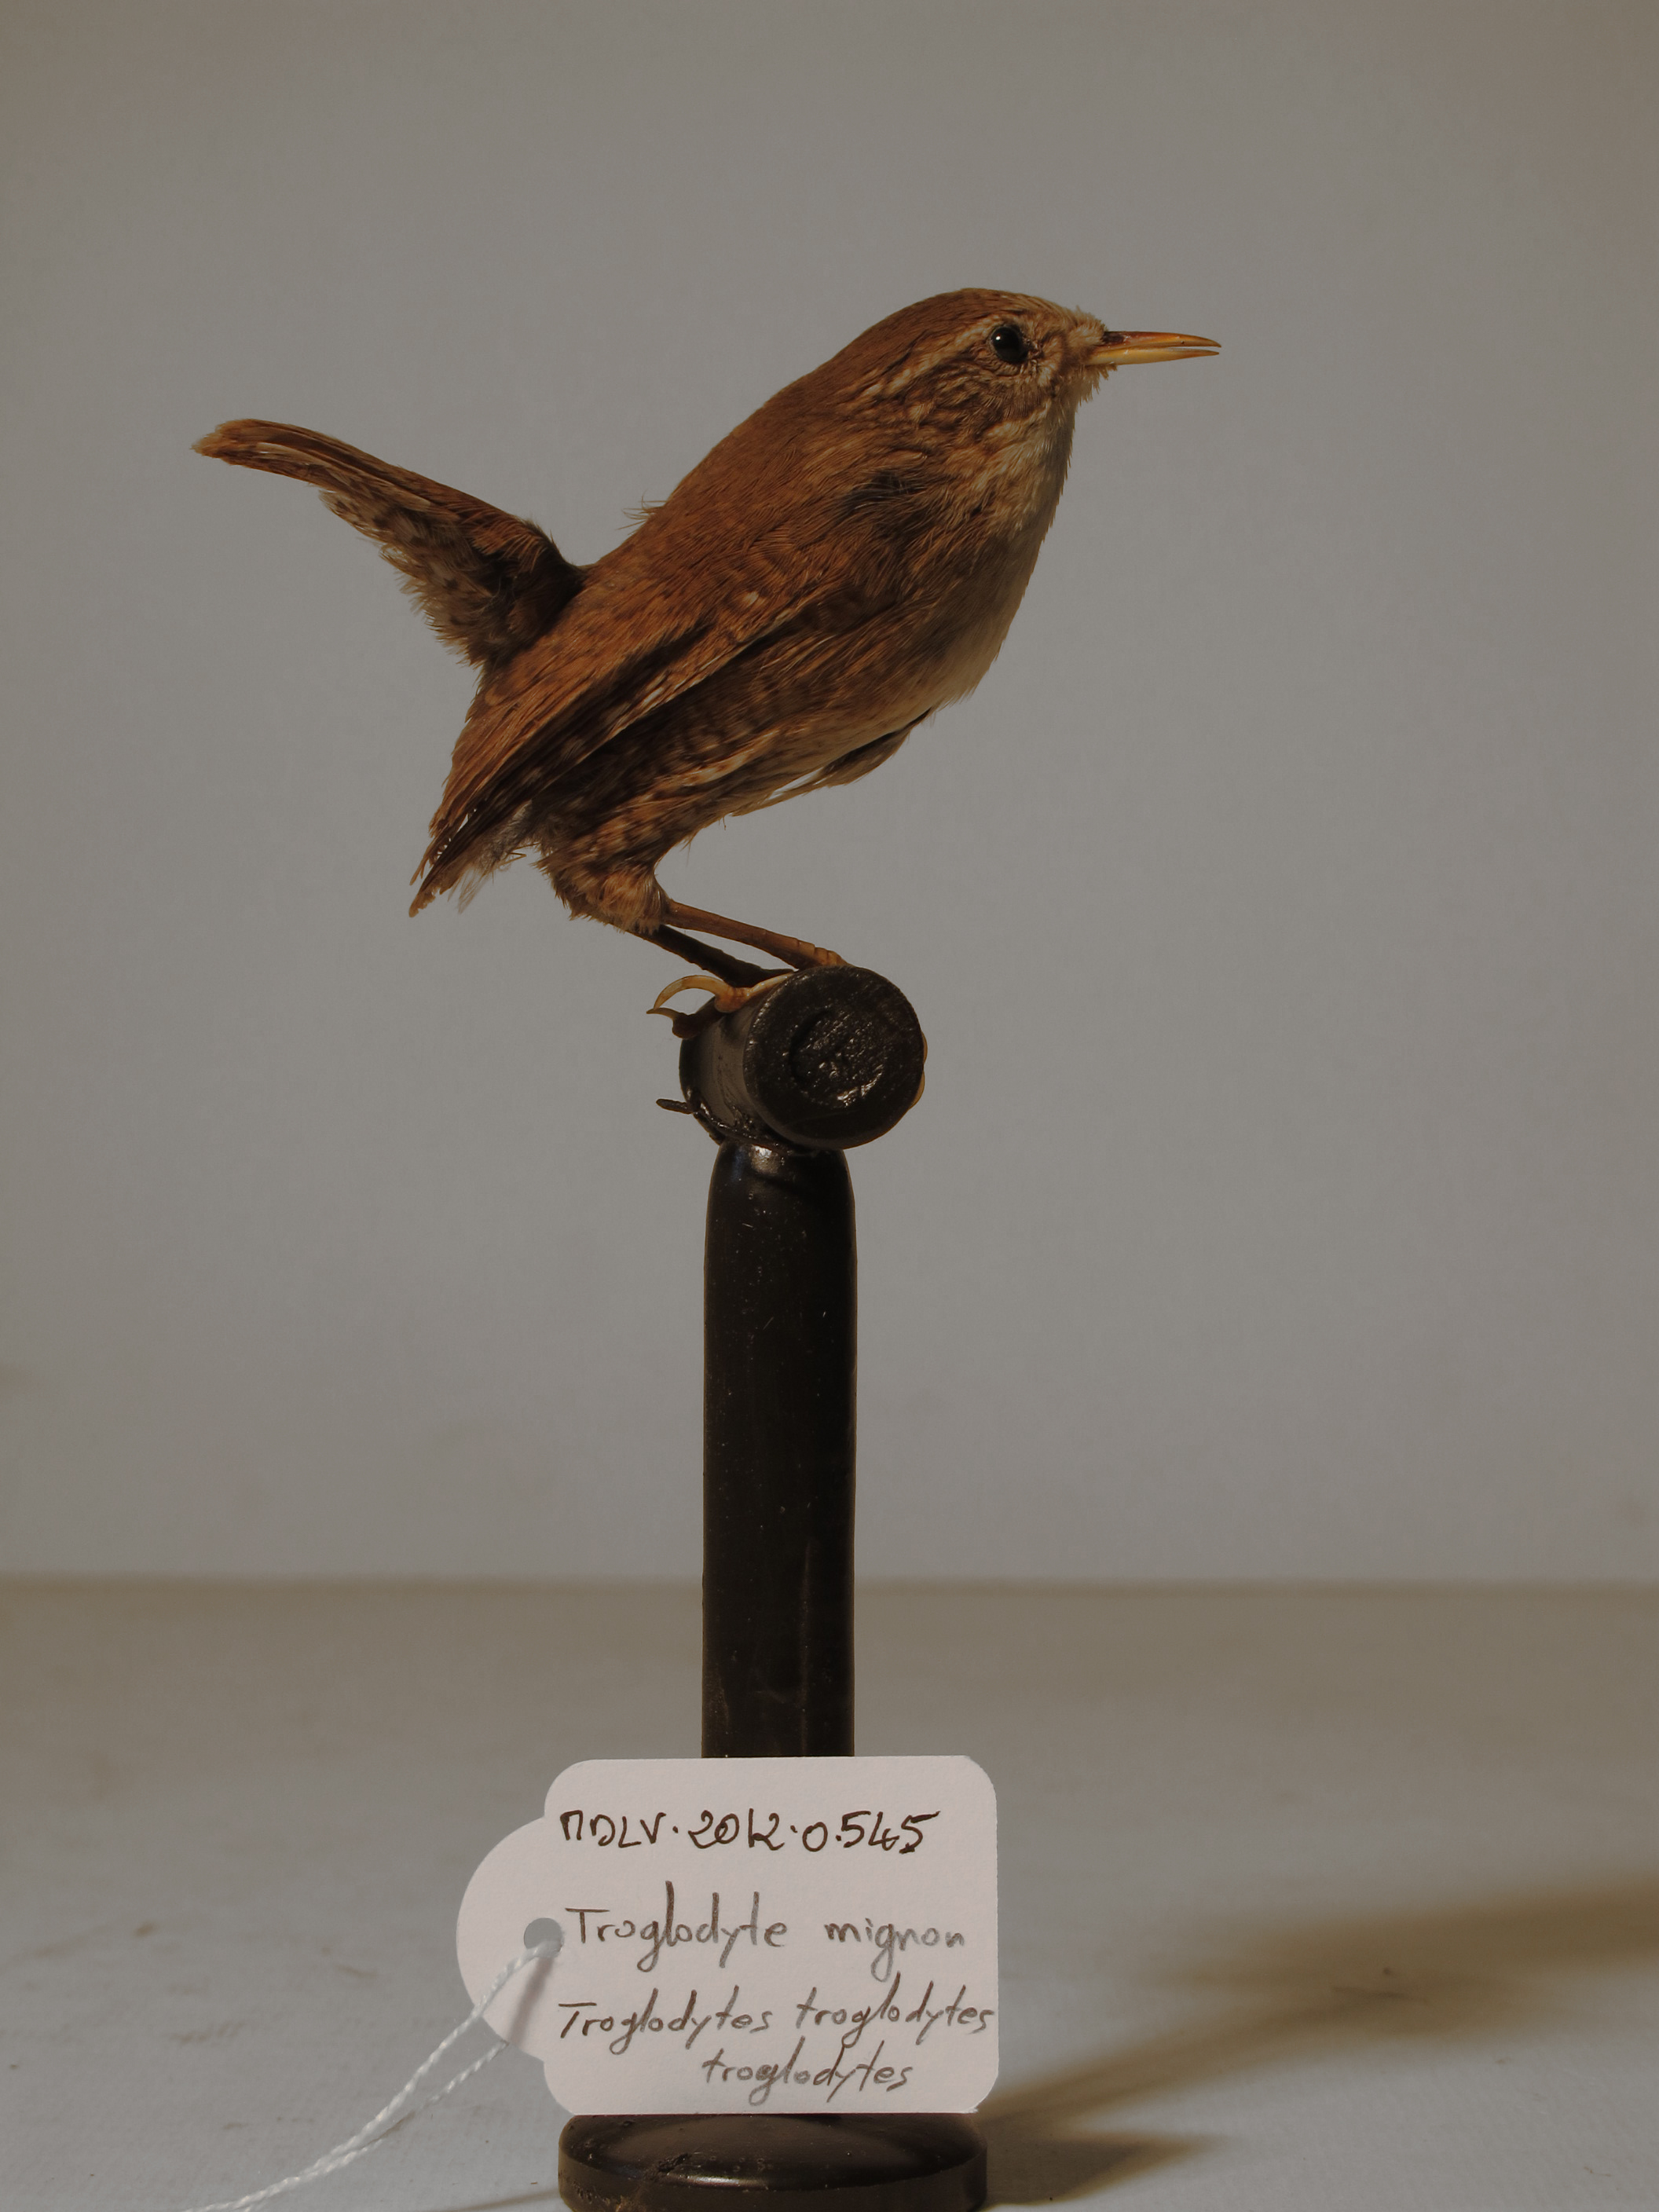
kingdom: Animalia
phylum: Chordata
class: Aves
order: Passeriformes
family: Troglodytidae
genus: Troglodytes
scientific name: Troglodytes troglodytes
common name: Northern Wren
